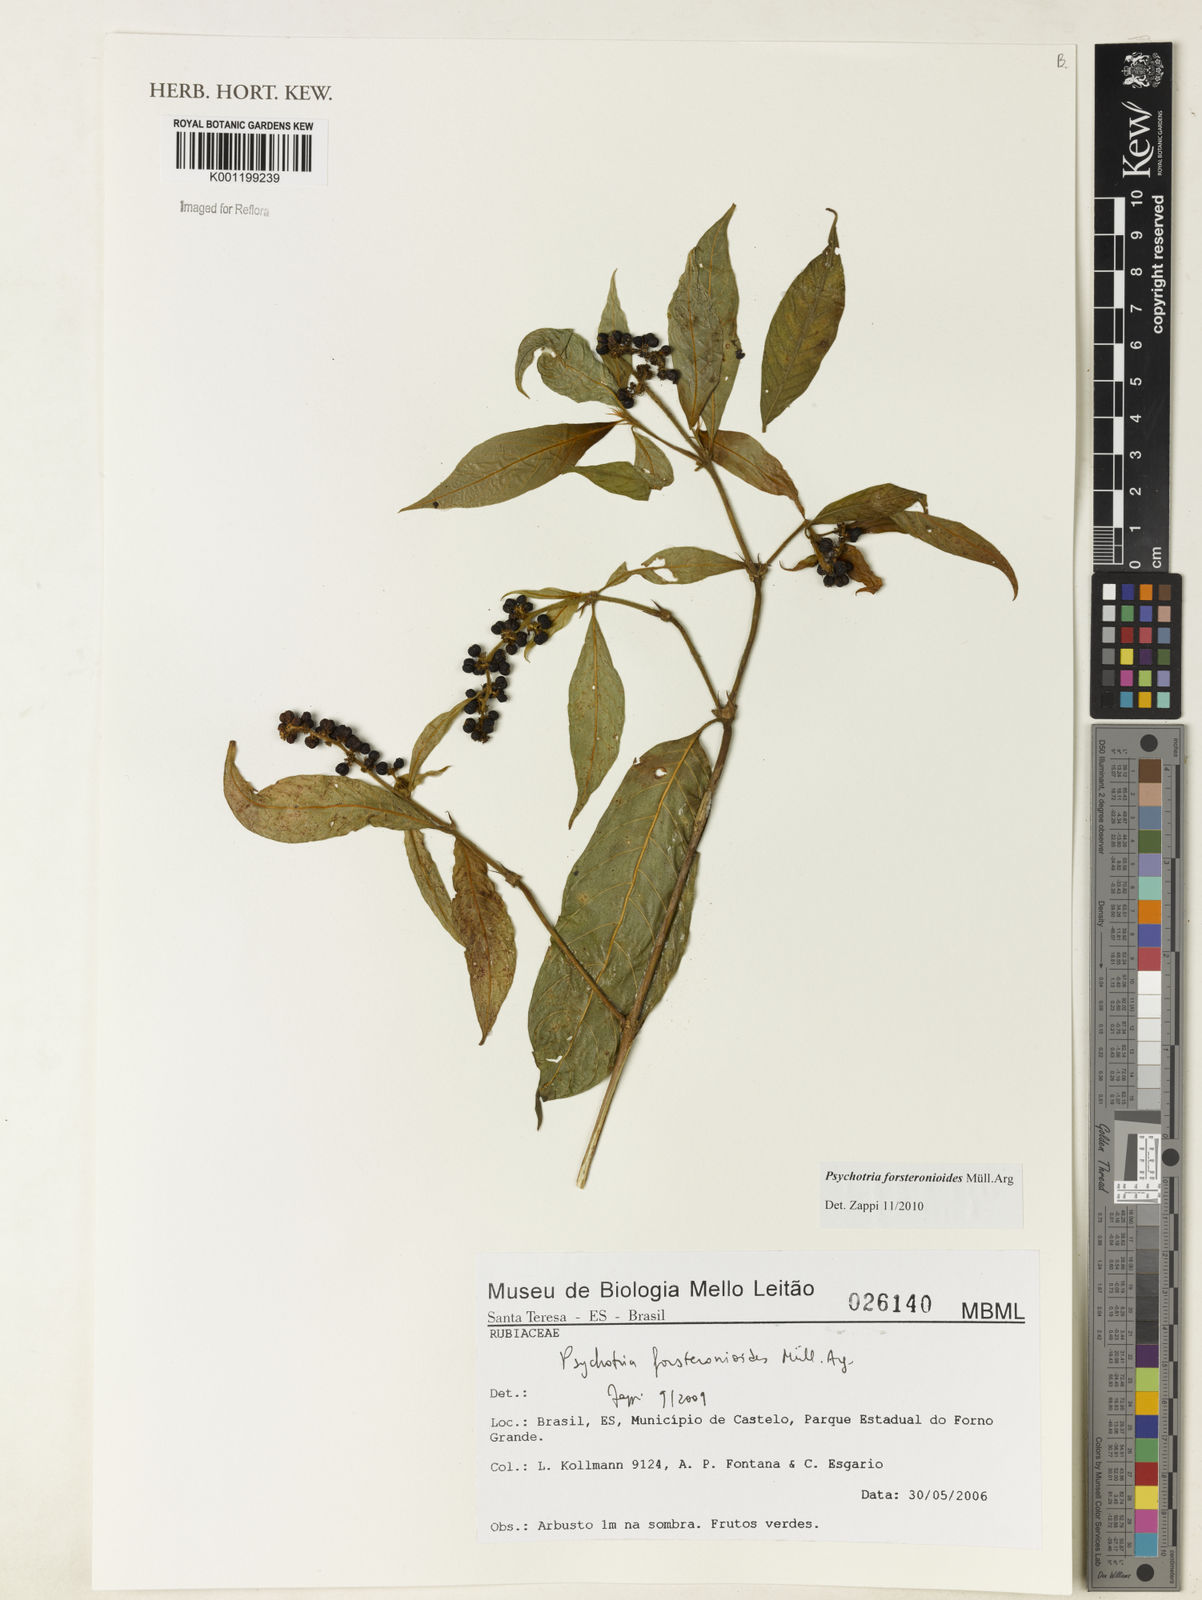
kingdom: Plantae
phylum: Tracheophyta
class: Magnoliopsida
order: Gentianales
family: Rubiaceae
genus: Psychotria
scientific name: Psychotria
